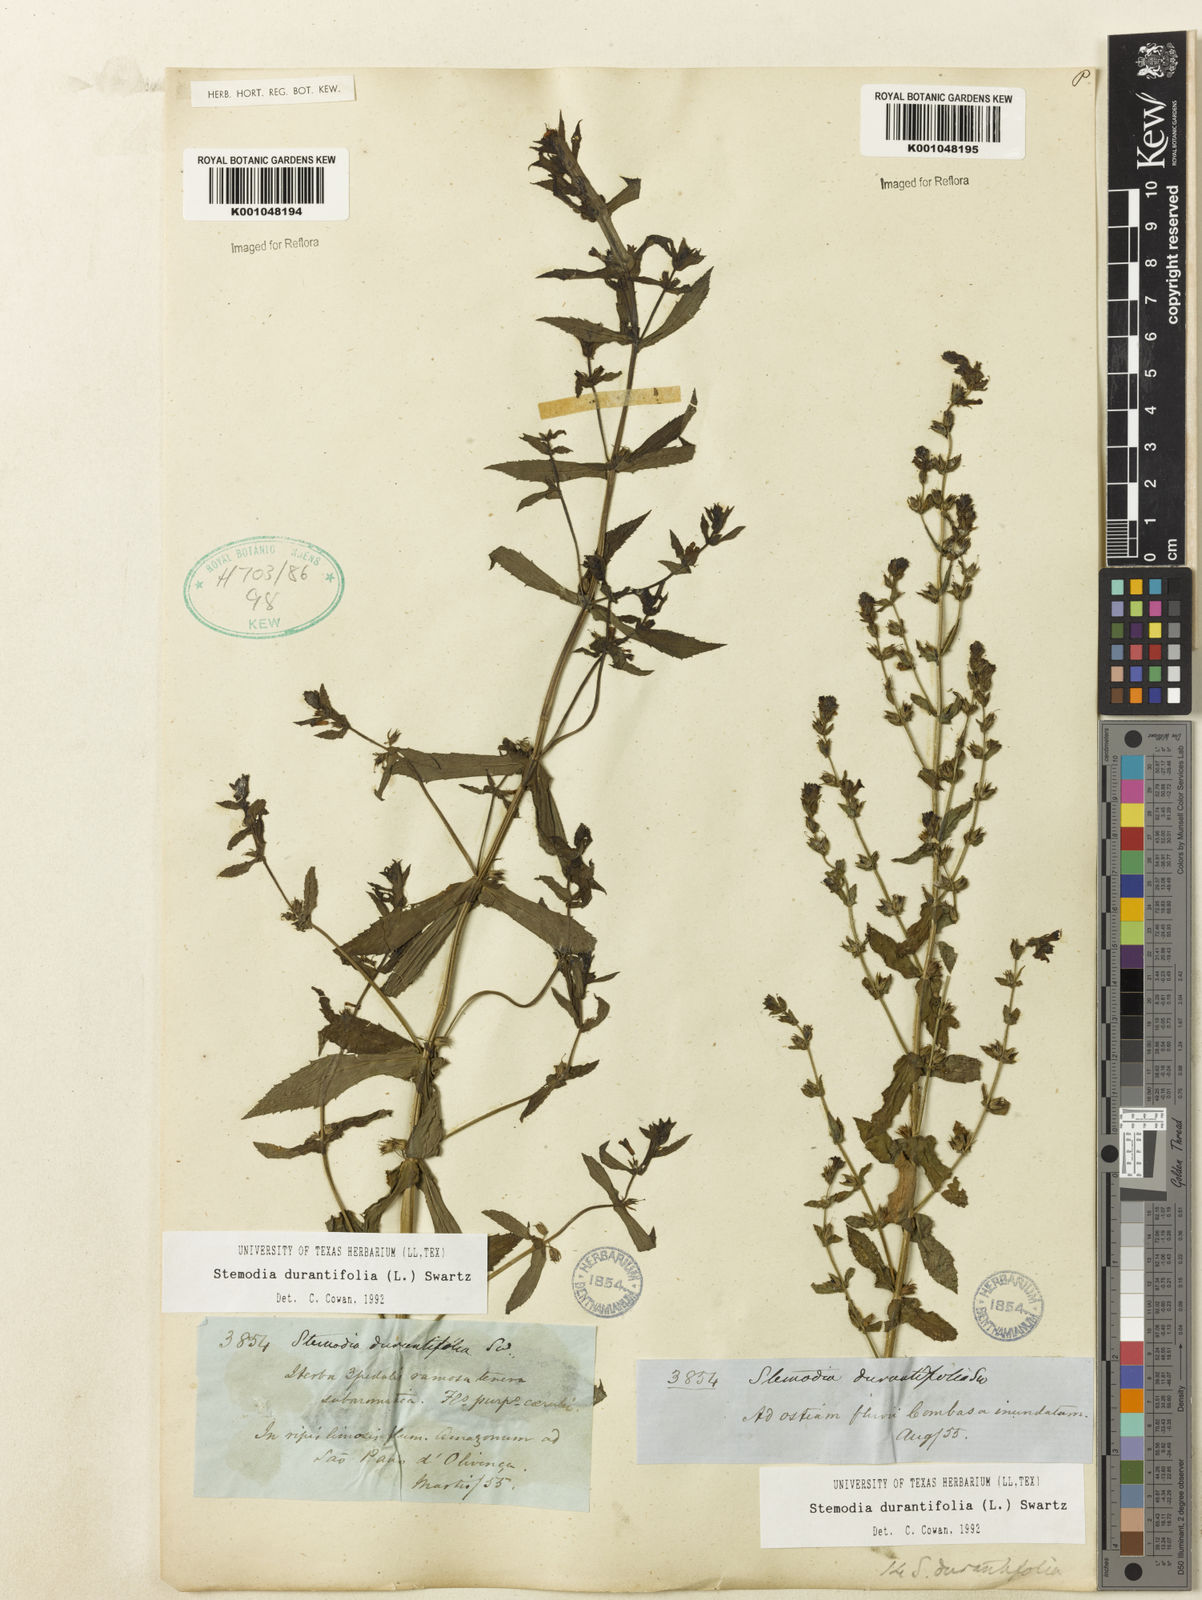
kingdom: Plantae
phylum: Tracheophyta
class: Magnoliopsida
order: Lamiales
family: Plantaginaceae
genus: Stemodia
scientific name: Stemodia durantifolia
